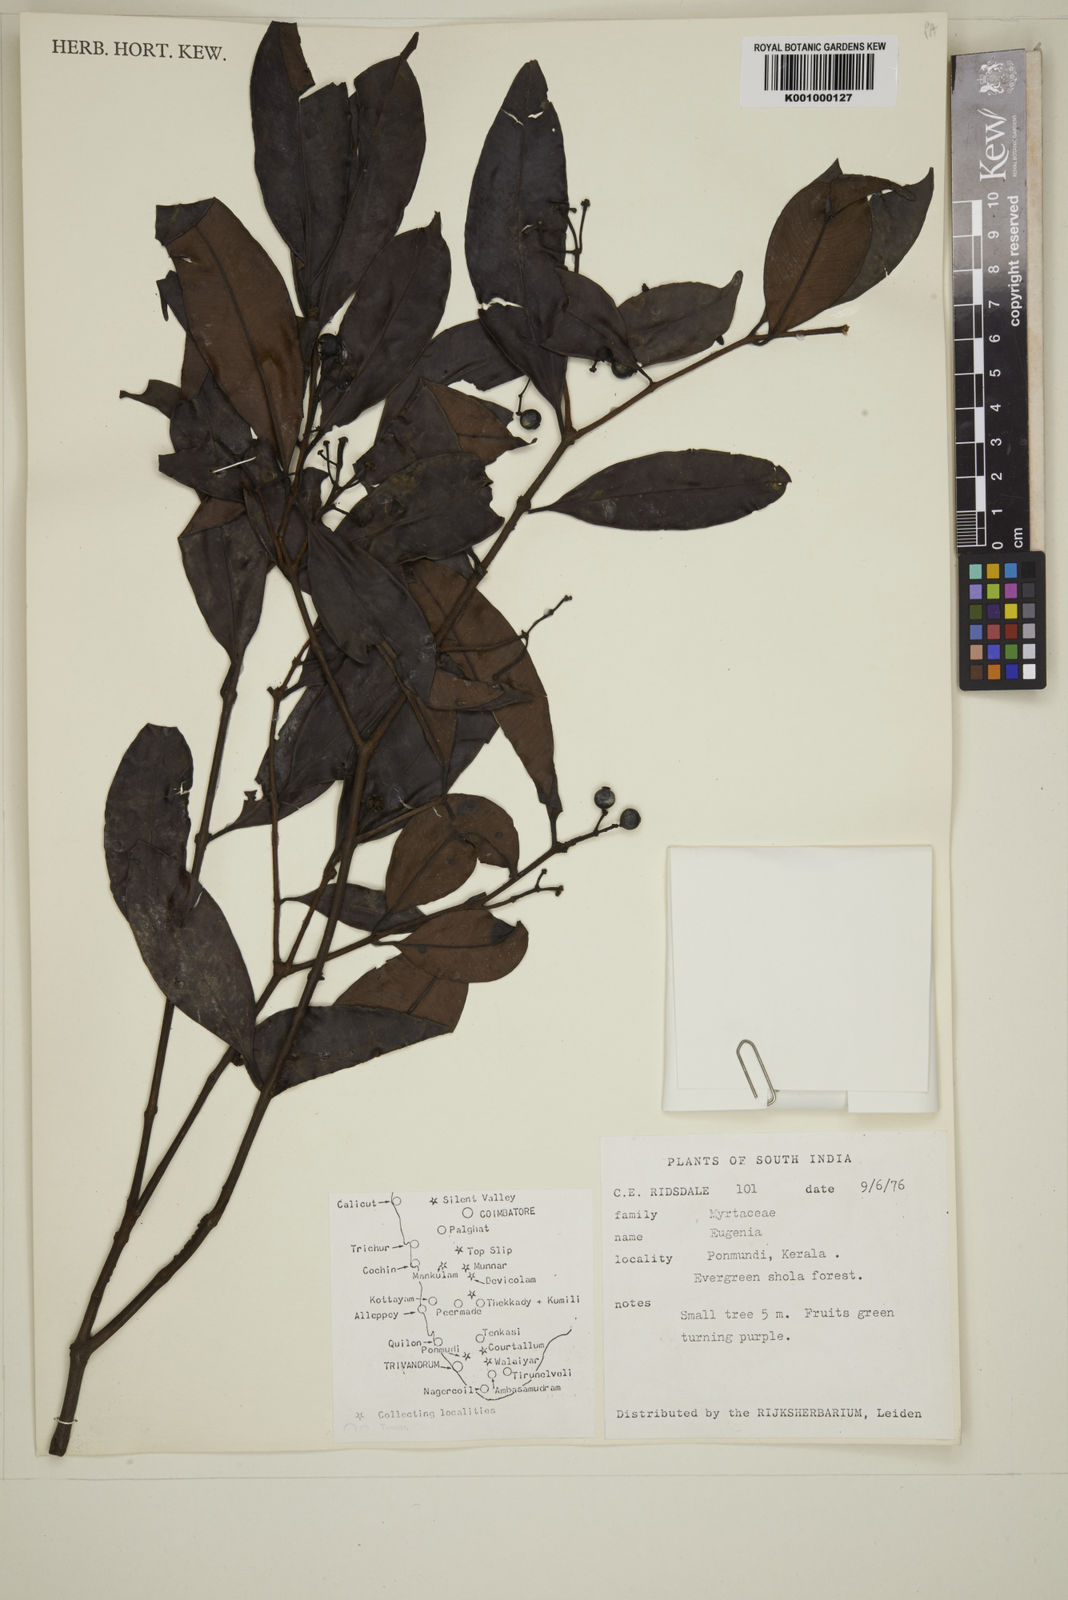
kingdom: Plantae
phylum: Tracheophyta
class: Magnoliopsida
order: Myrtales
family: Myrtaceae
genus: Eugenia
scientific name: Eugenia
